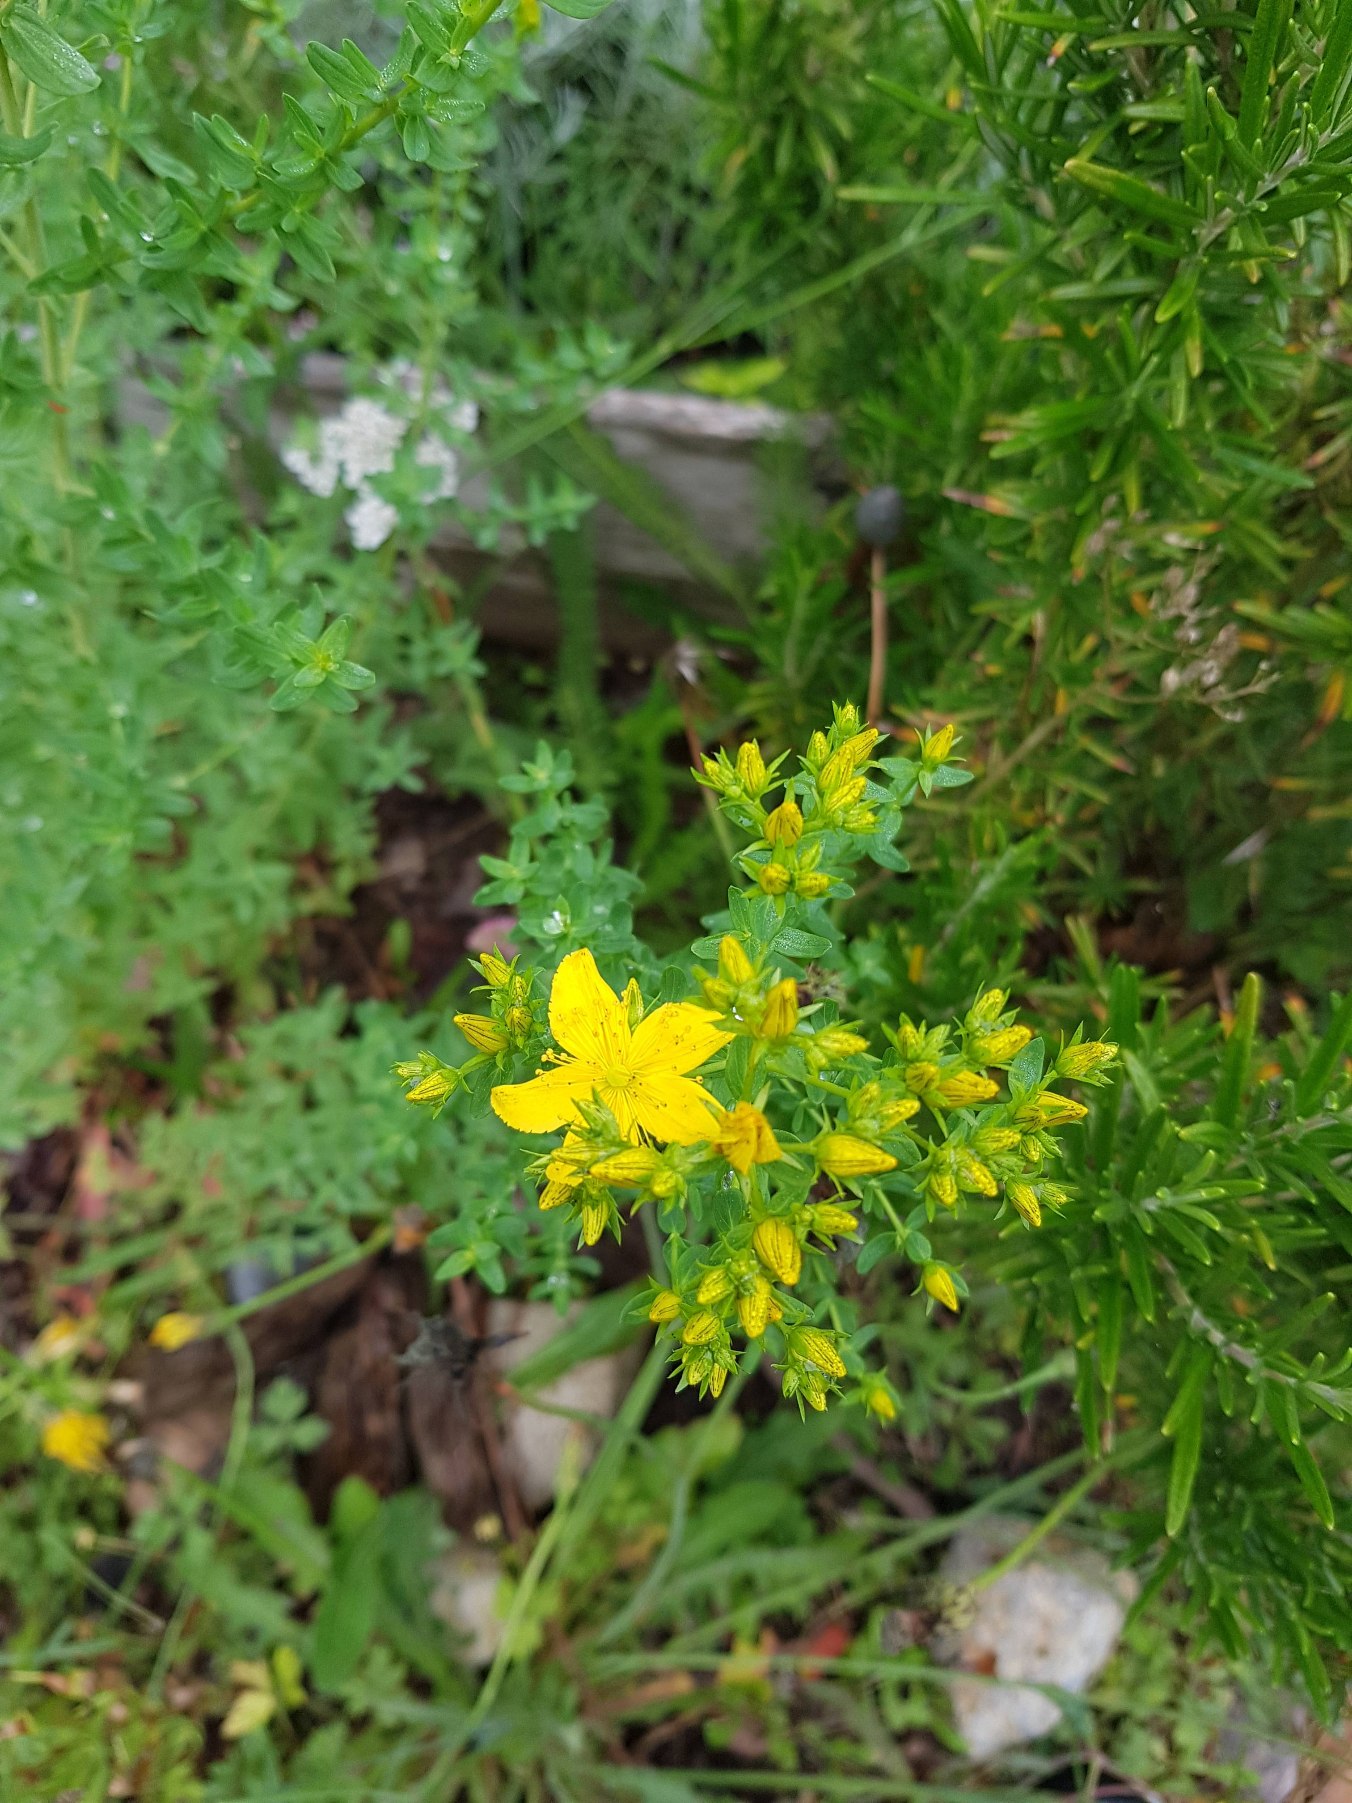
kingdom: Plantae
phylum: Tracheophyta
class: Magnoliopsida
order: Malpighiales
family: Hypericaceae
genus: Hypericum
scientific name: Hypericum perforatum
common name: Prikbladet perikon
